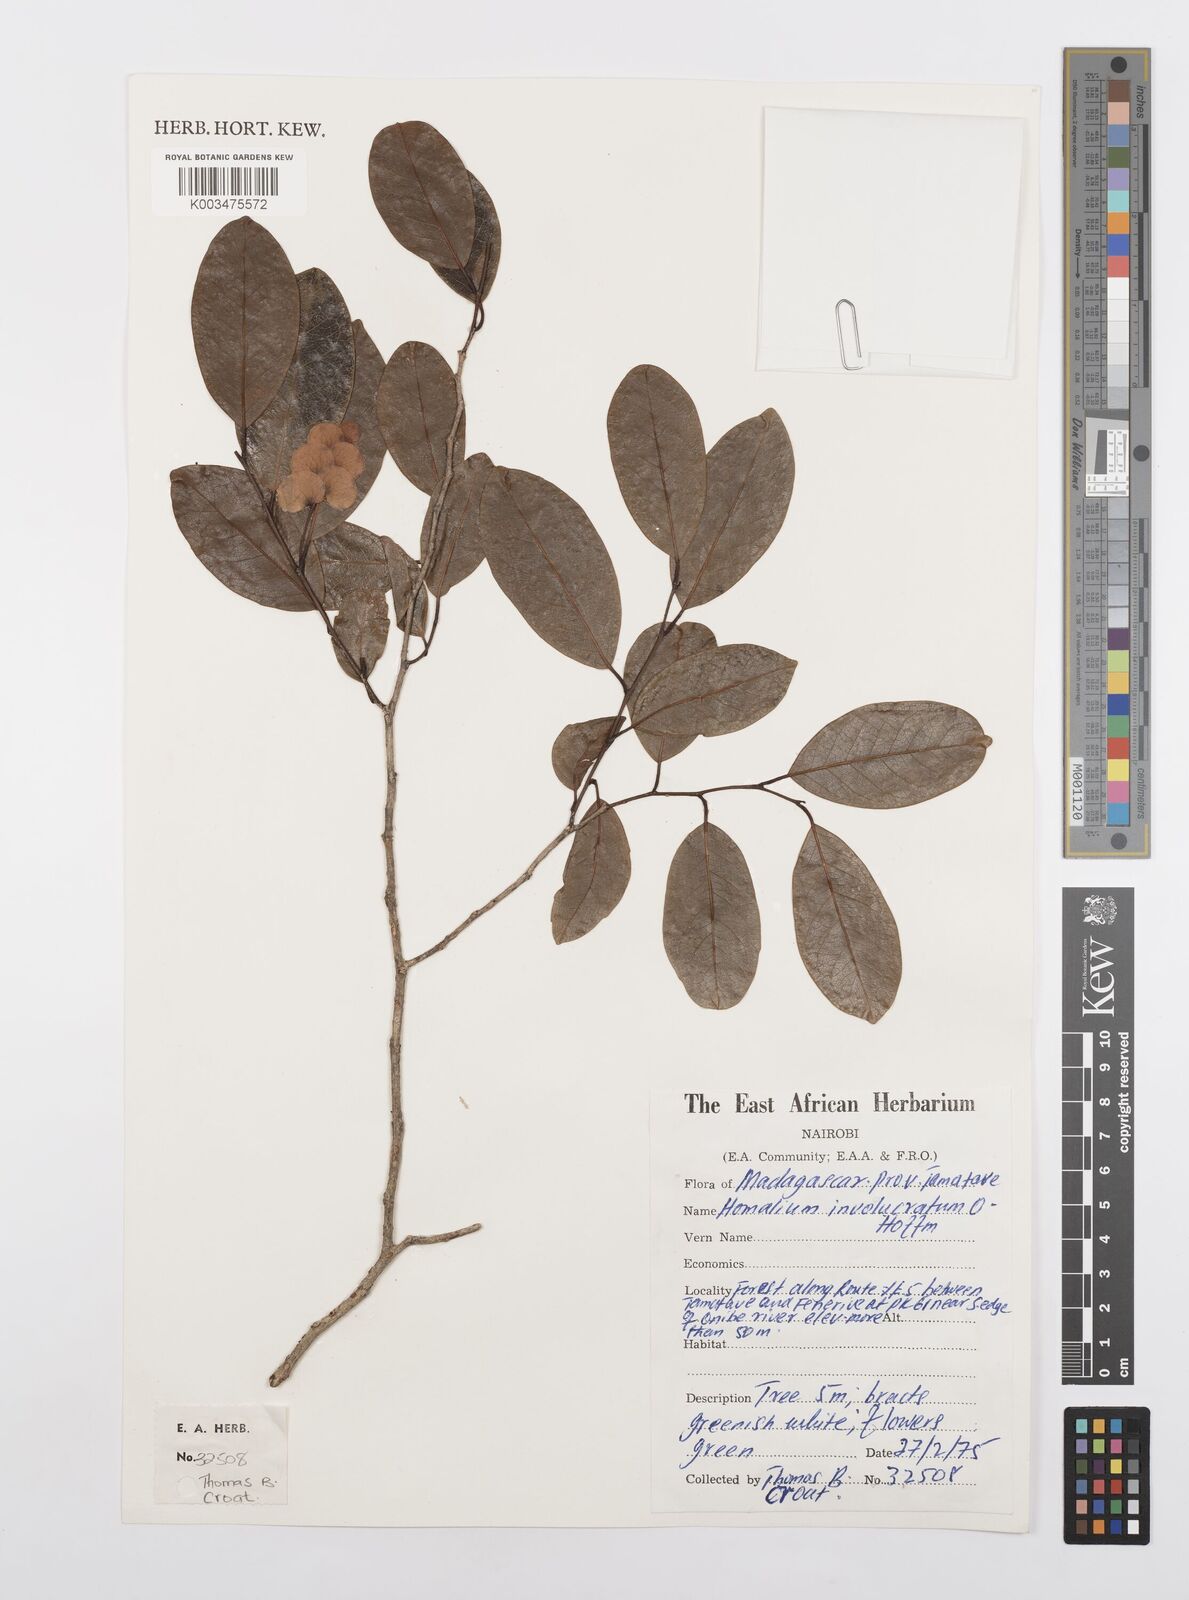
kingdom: Plantae
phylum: Tracheophyta
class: Magnoliopsida
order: Malpighiales
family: Salicaceae
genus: Homalium
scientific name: Homalium involucratum
